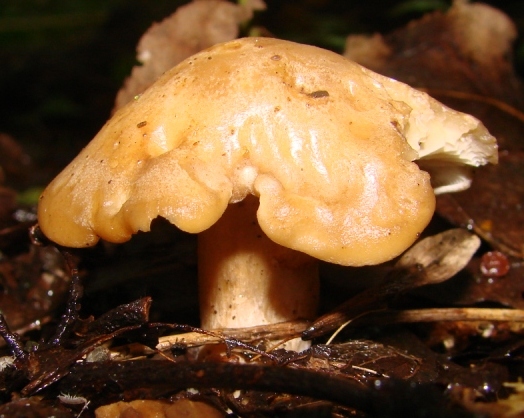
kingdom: Fungi
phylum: Basidiomycota
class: Agaricomycetes
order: Agaricales
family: Lyophyllaceae
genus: Calocybe
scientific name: Calocybe hebelomoides
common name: lerbrun fagerhat
